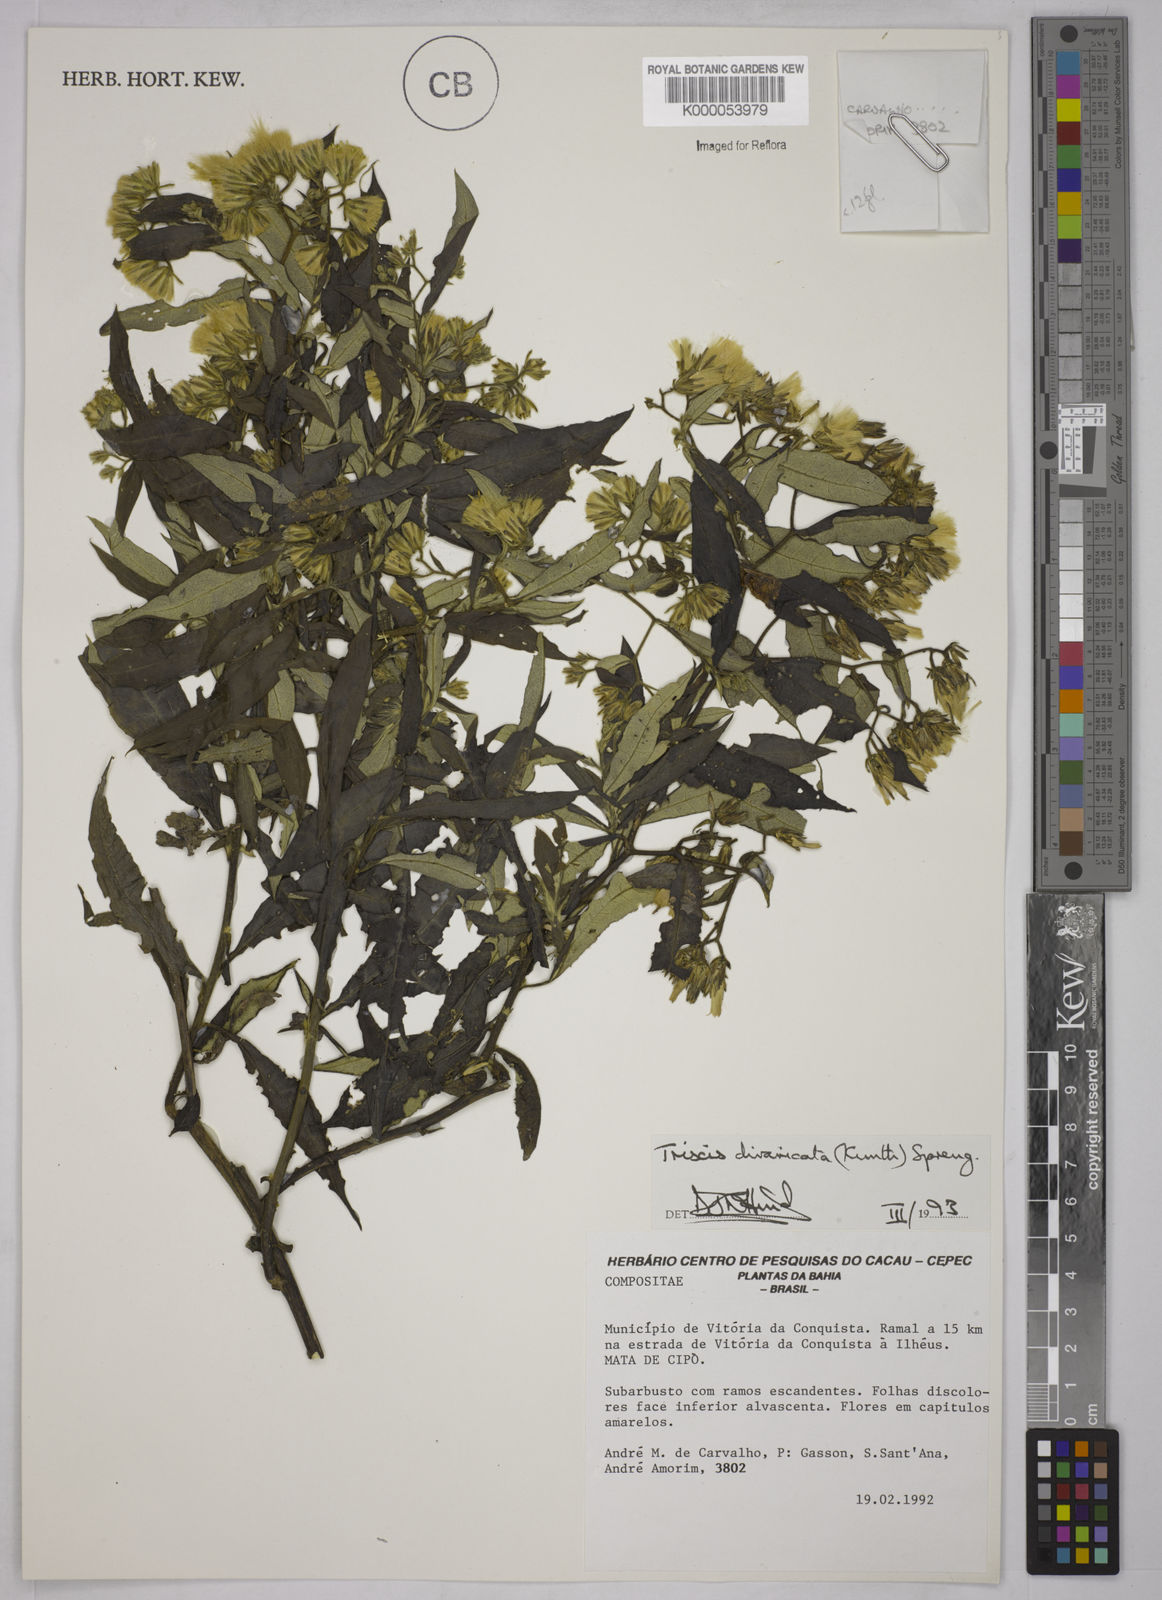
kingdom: Plantae
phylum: Tracheophyta
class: Magnoliopsida
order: Asterales
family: Asteraceae
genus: Trixis
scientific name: Trixis divaricata
